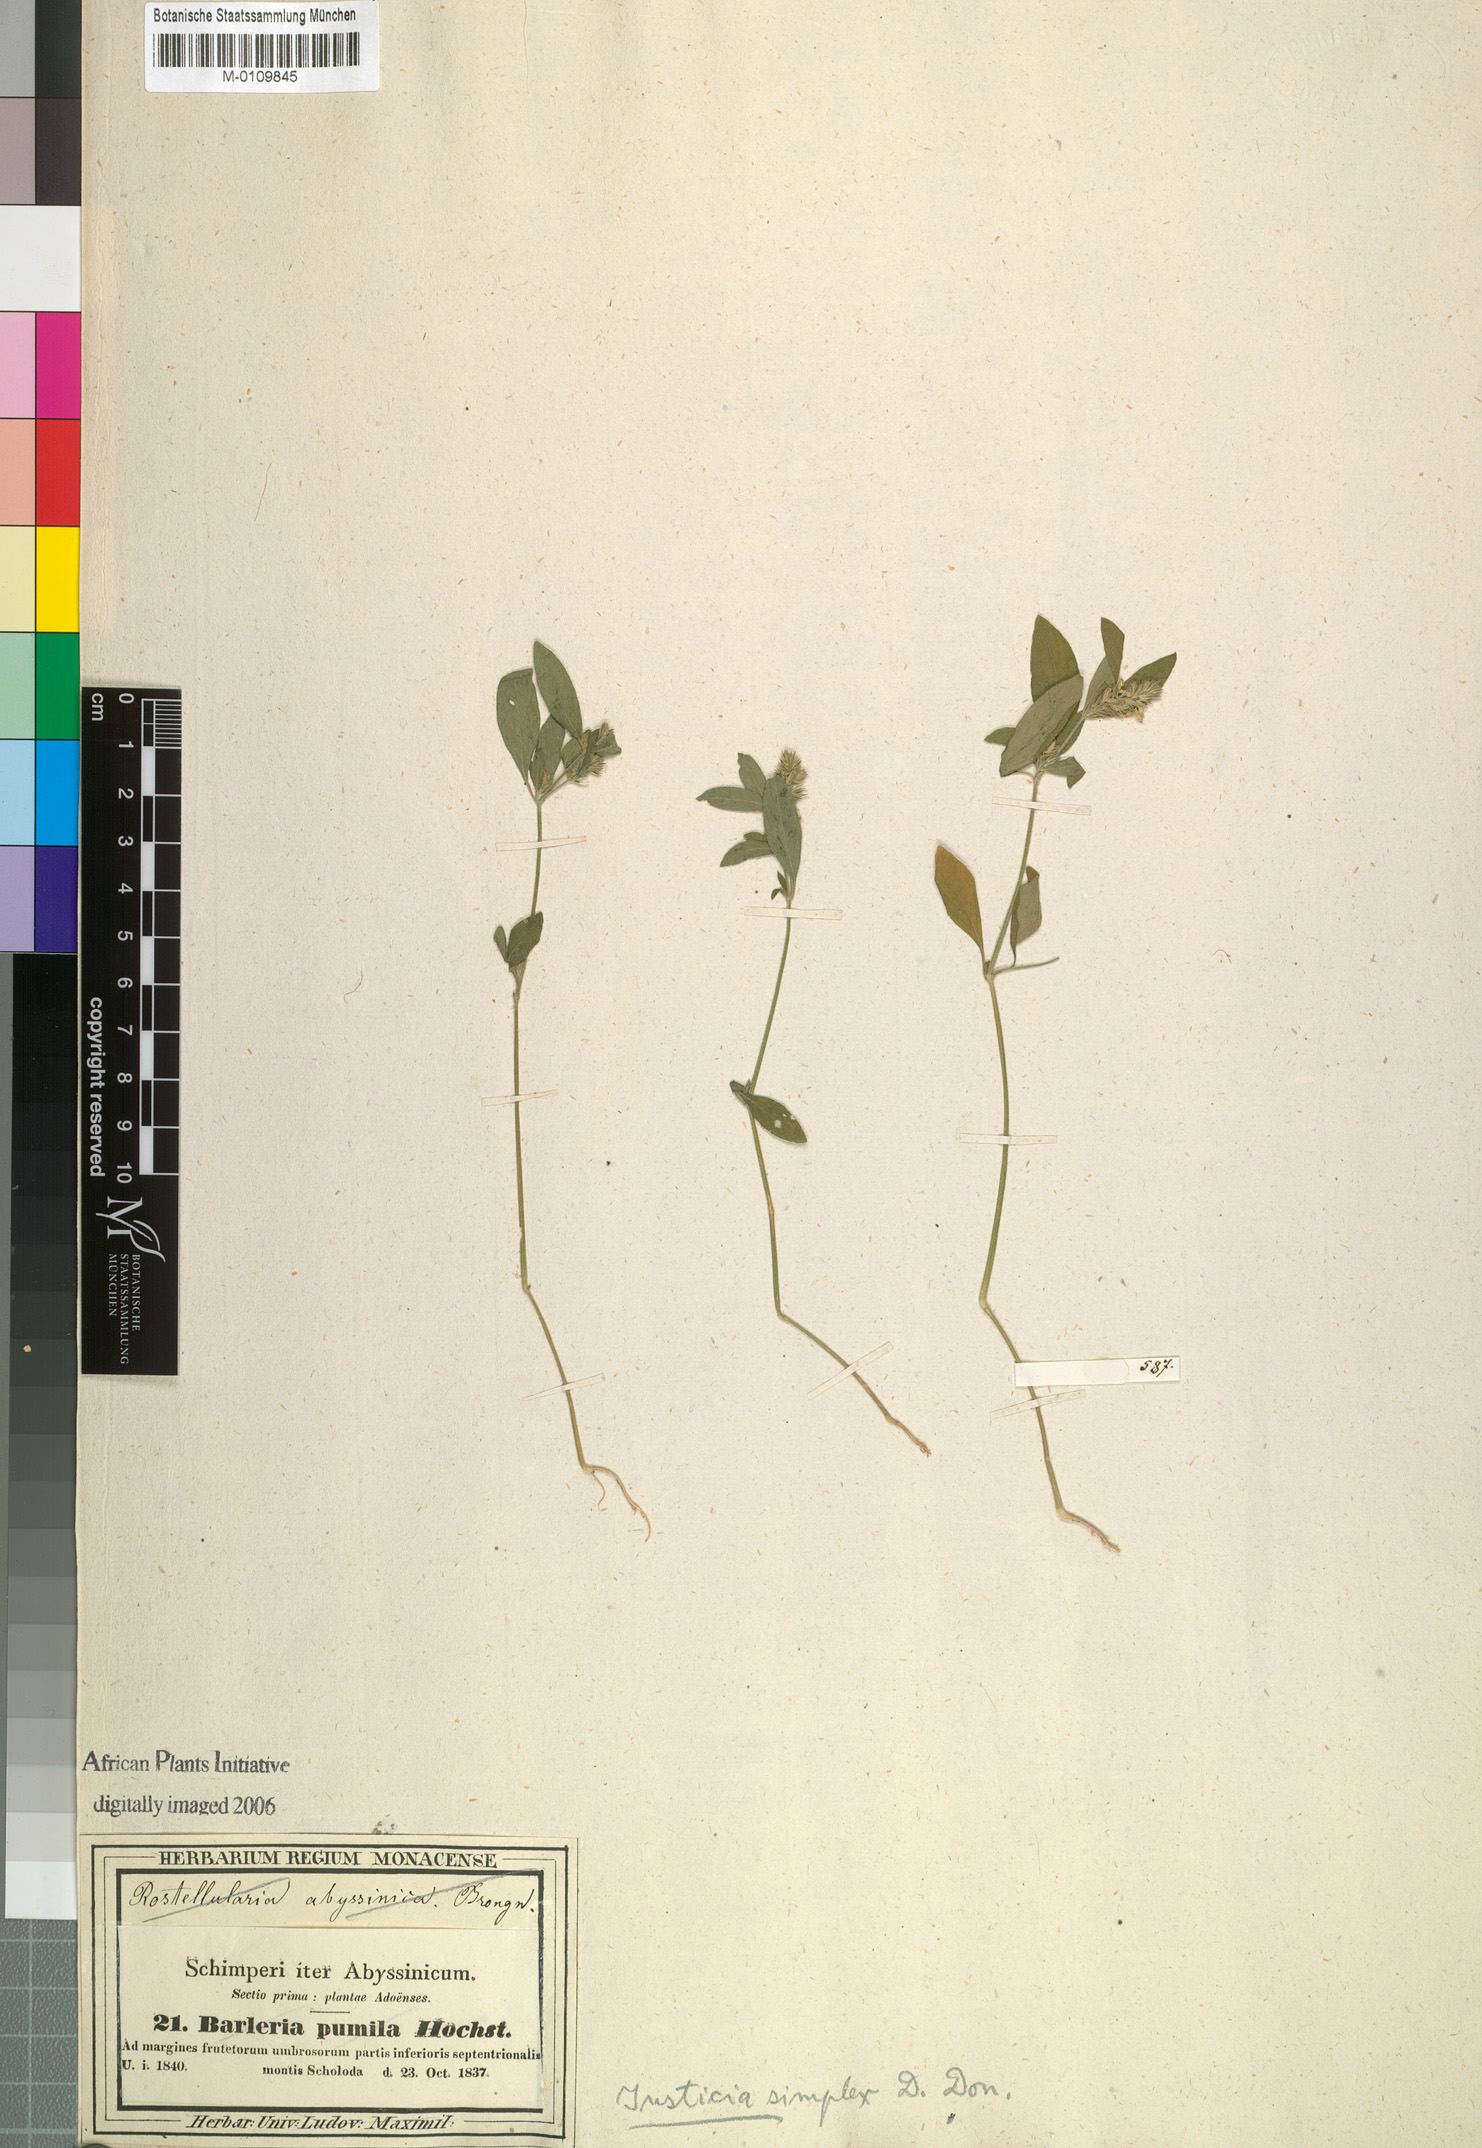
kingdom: Plantae
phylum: Tracheophyta
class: Magnoliopsida
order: Lamiales
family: Acanthaceae
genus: Rostellularia
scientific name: Rostellularia diffusa
